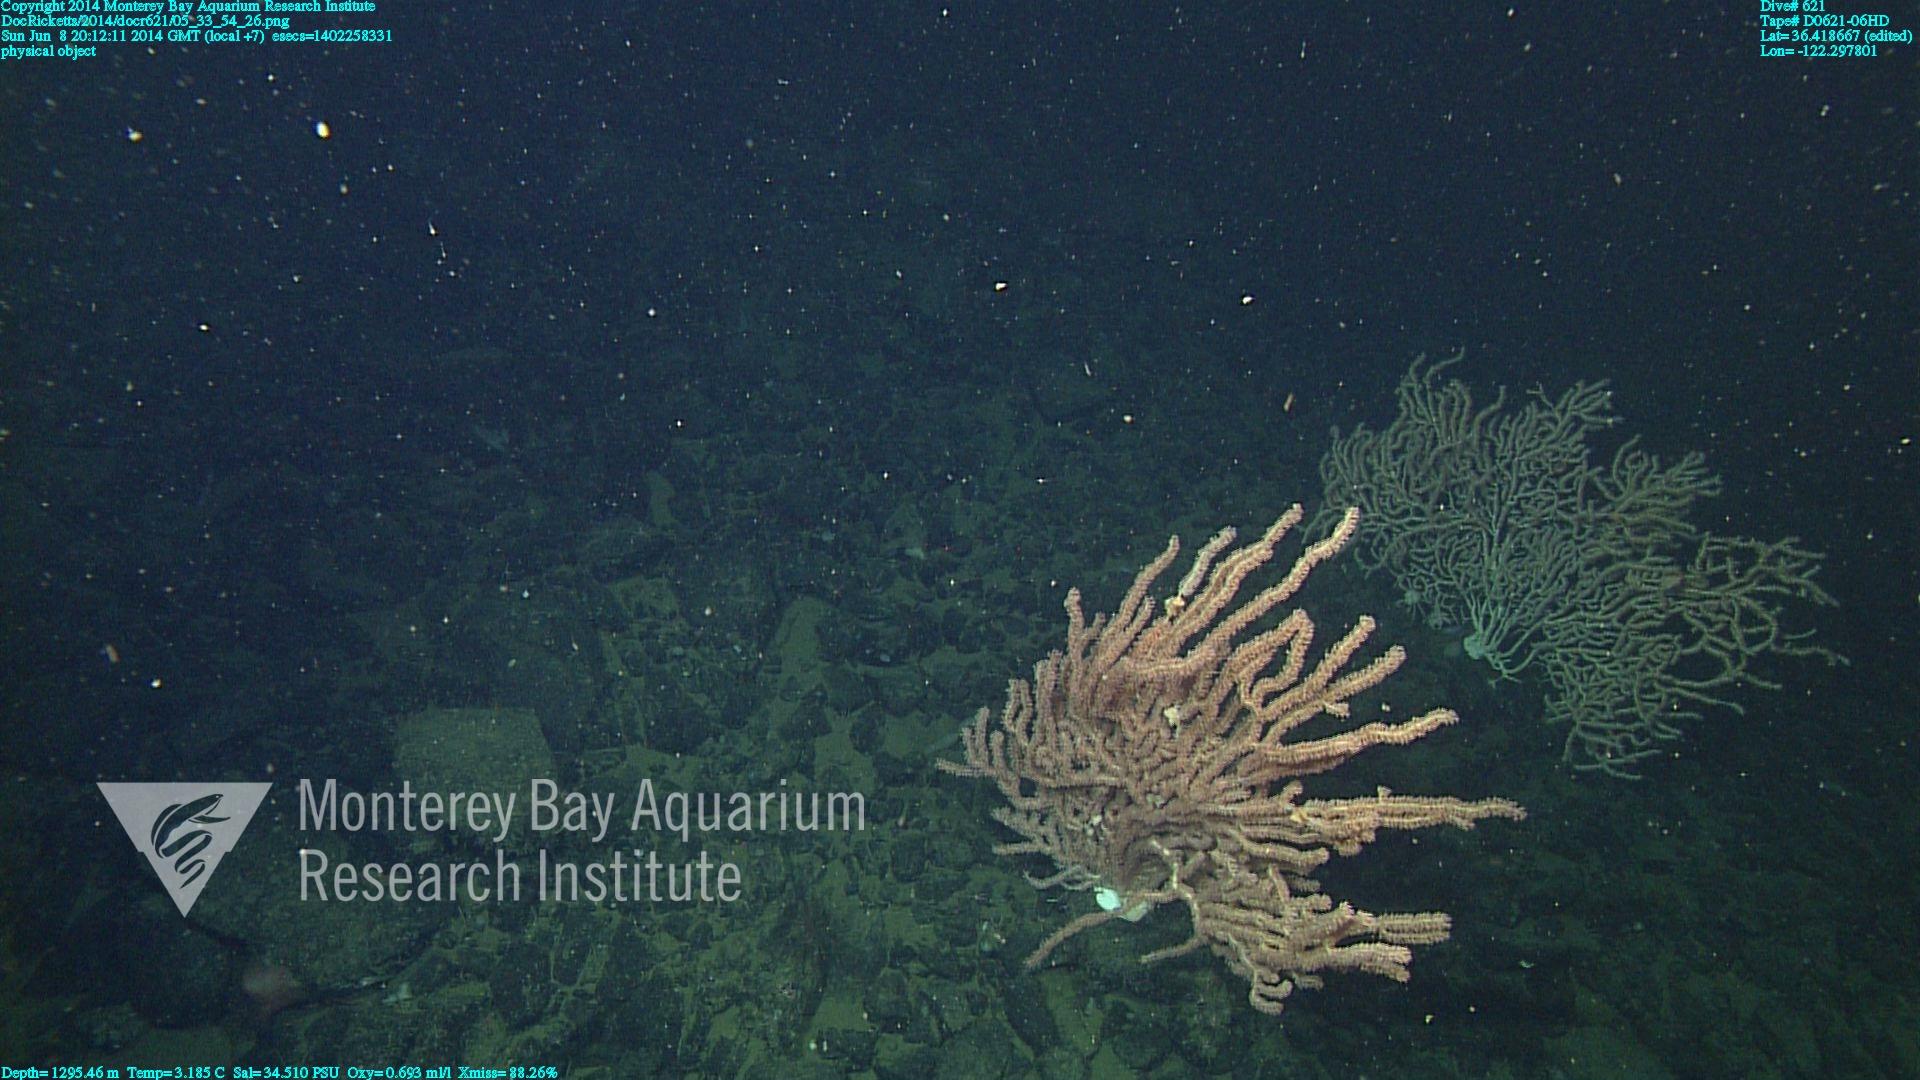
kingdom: Animalia
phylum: Cnidaria
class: Anthozoa
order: Scleralcyonacea
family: Keratoisididae
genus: Keratoisis
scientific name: Keratoisis
